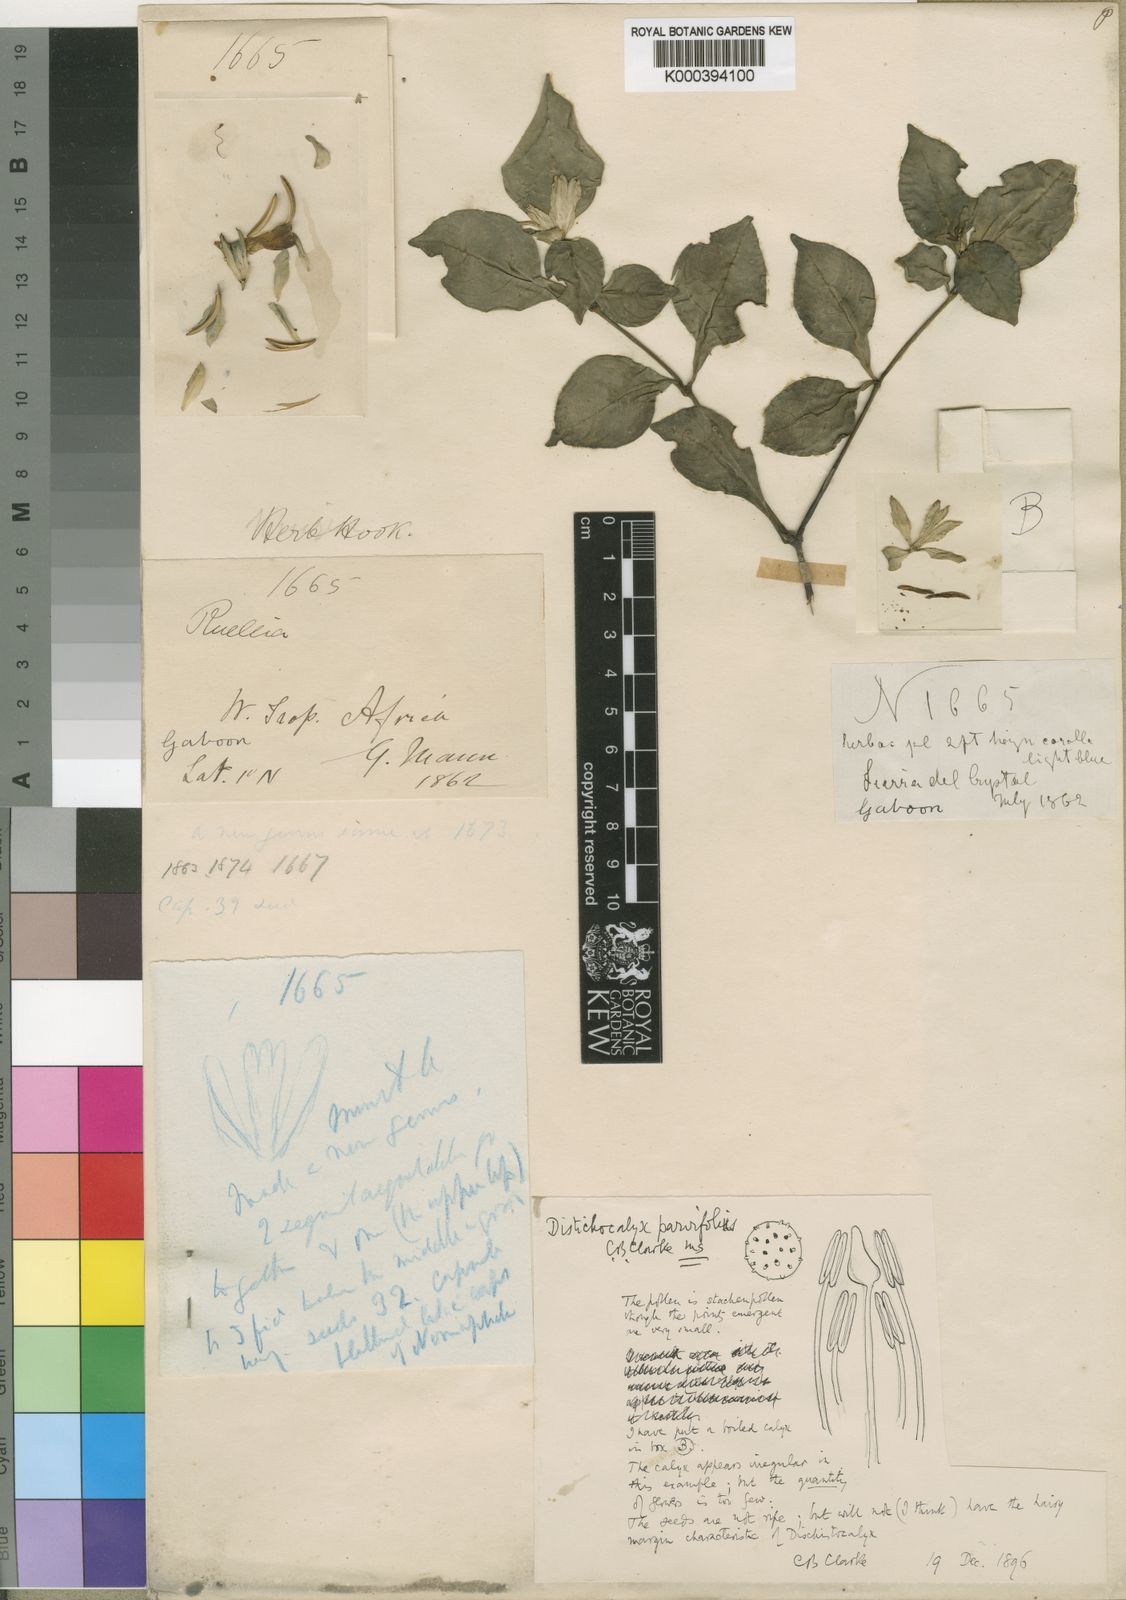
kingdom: Plantae
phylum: Tracheophyta
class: Magnoliopsida
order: Lamiales
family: Acanthaceae
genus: Dischistocalyx
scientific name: Dischistocalyx strobilinus
